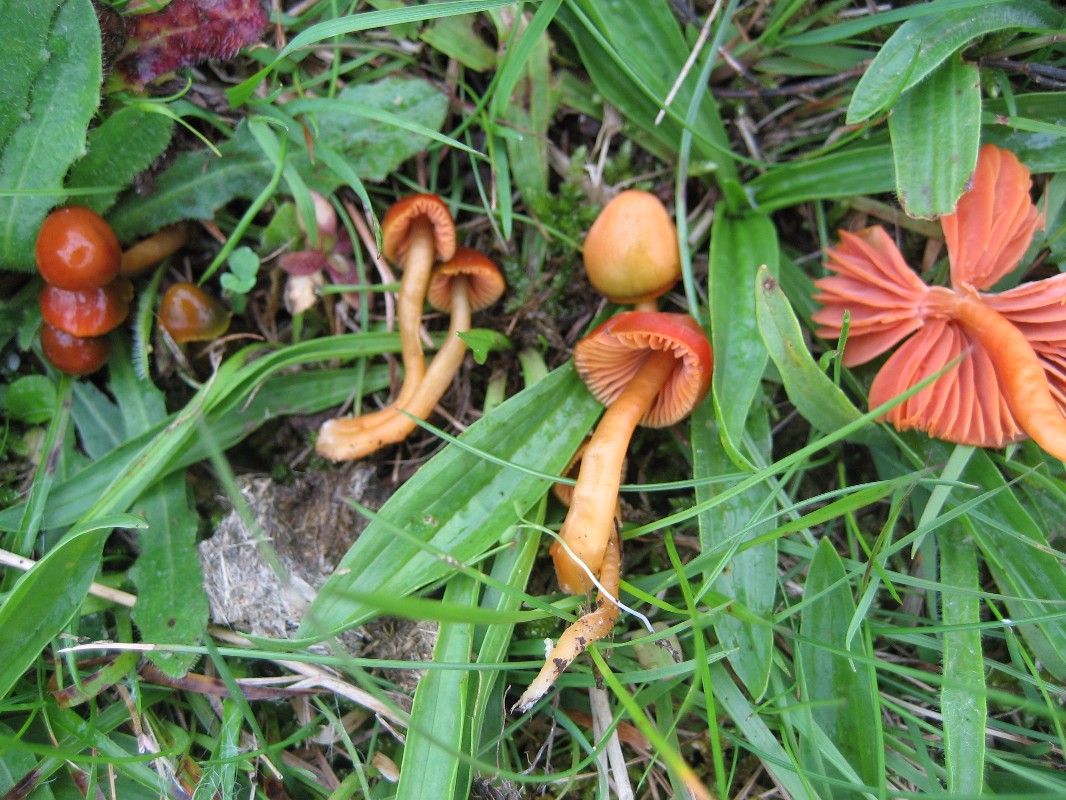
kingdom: Fungi
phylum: Basidiomycota
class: Agaricomycetes
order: Agaricales
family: Hygrophoraceae
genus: Gliophorus
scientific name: Gliophorus europerplexus
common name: Butterscotch waxcap
